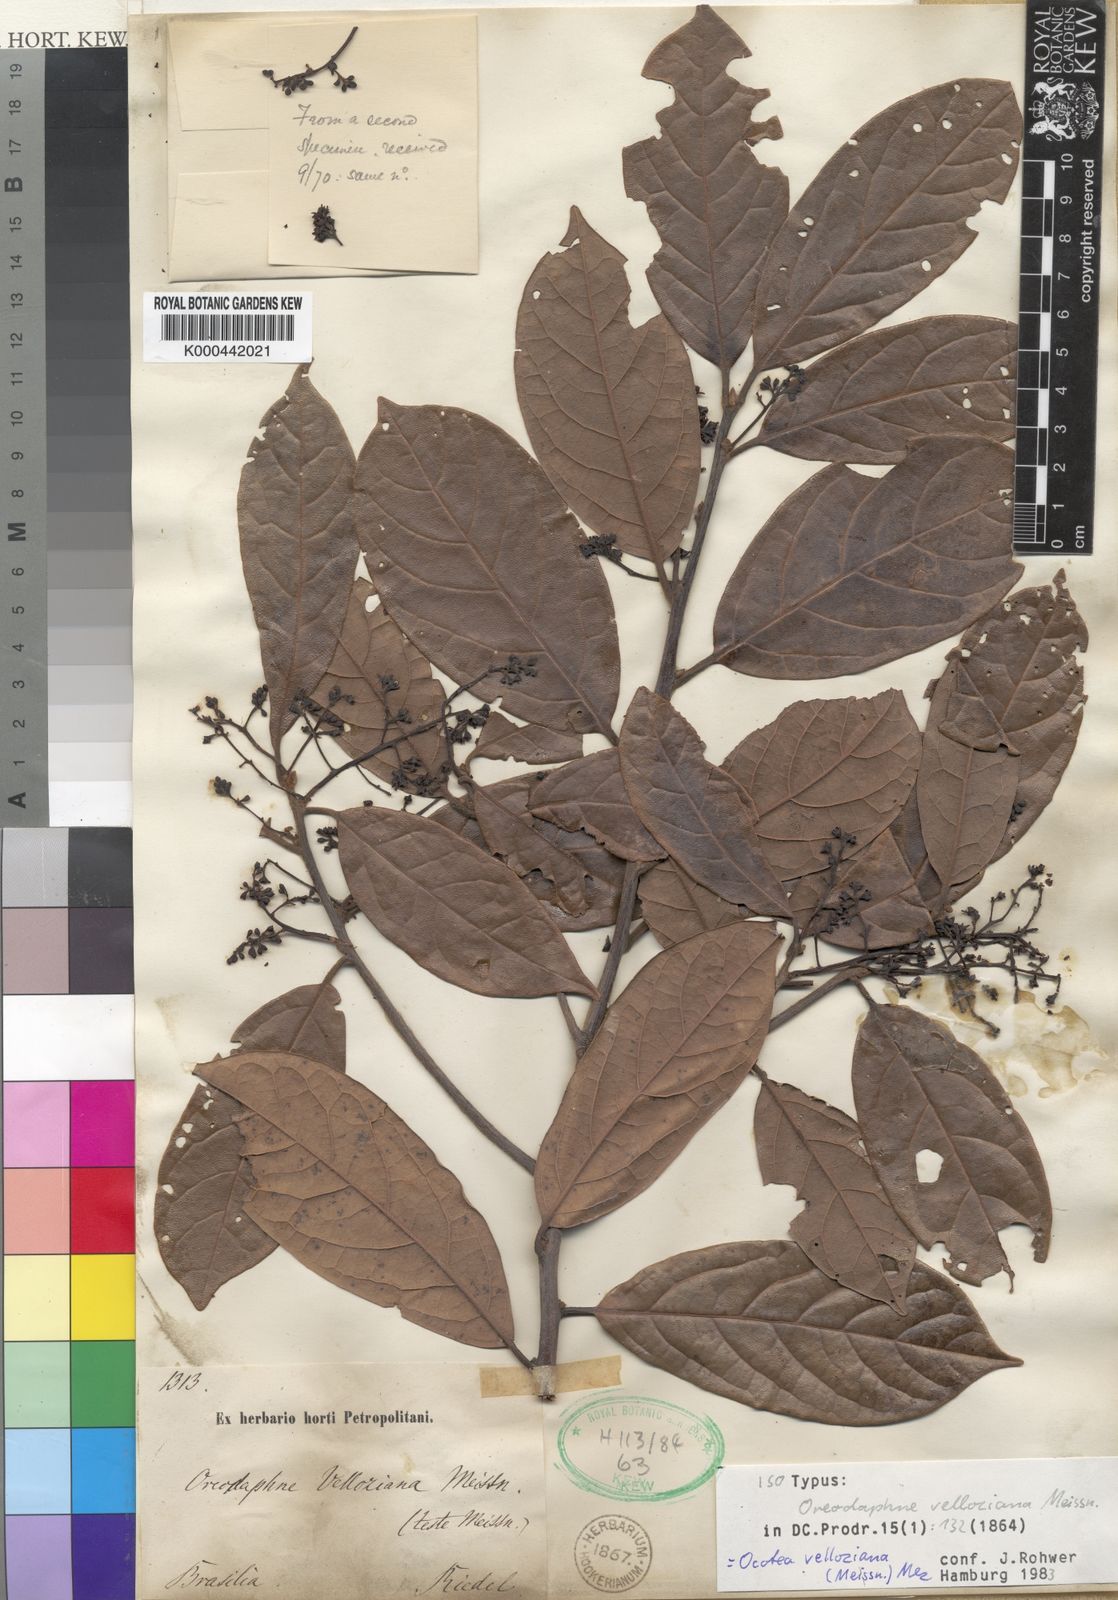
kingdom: Plantae
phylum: Tracheophyta
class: Magnoliopsida
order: Laurales
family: Lauraceae
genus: Ocotea
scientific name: Ocotea velloziana
